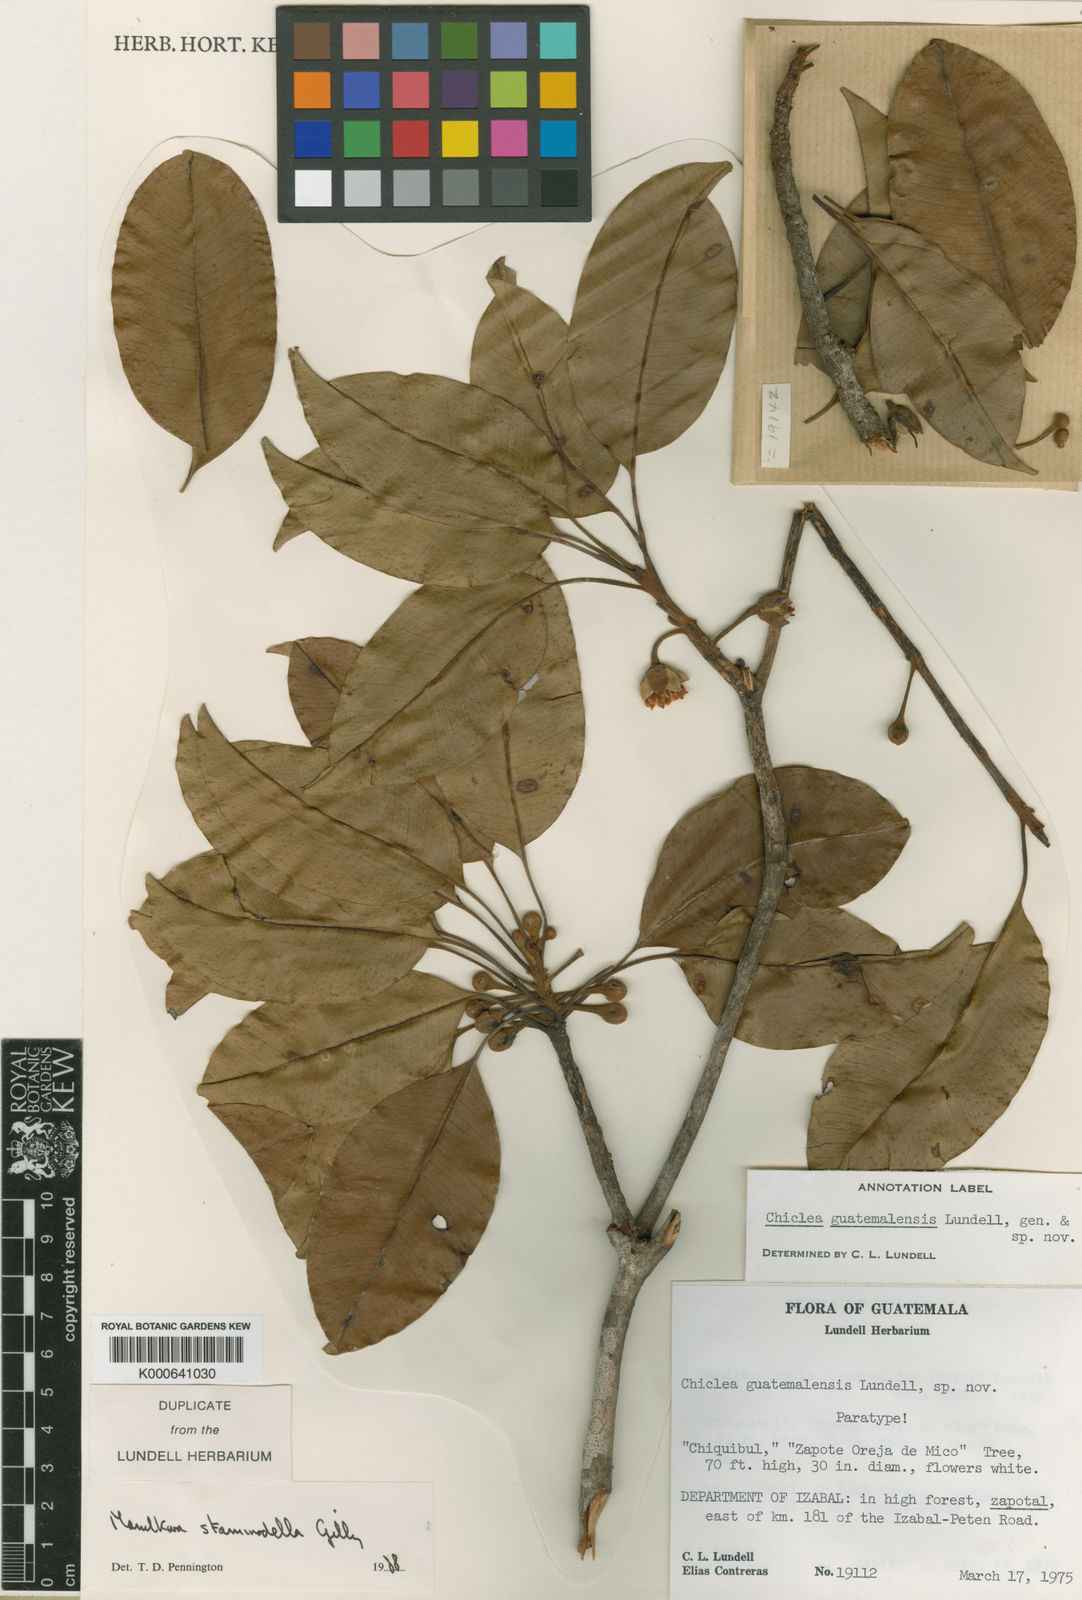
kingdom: Plantae
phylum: Tracheophyta
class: Magnoliopsida
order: Ericales
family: Sapotaceae
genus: Manilkara
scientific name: Manilkara staminodella
